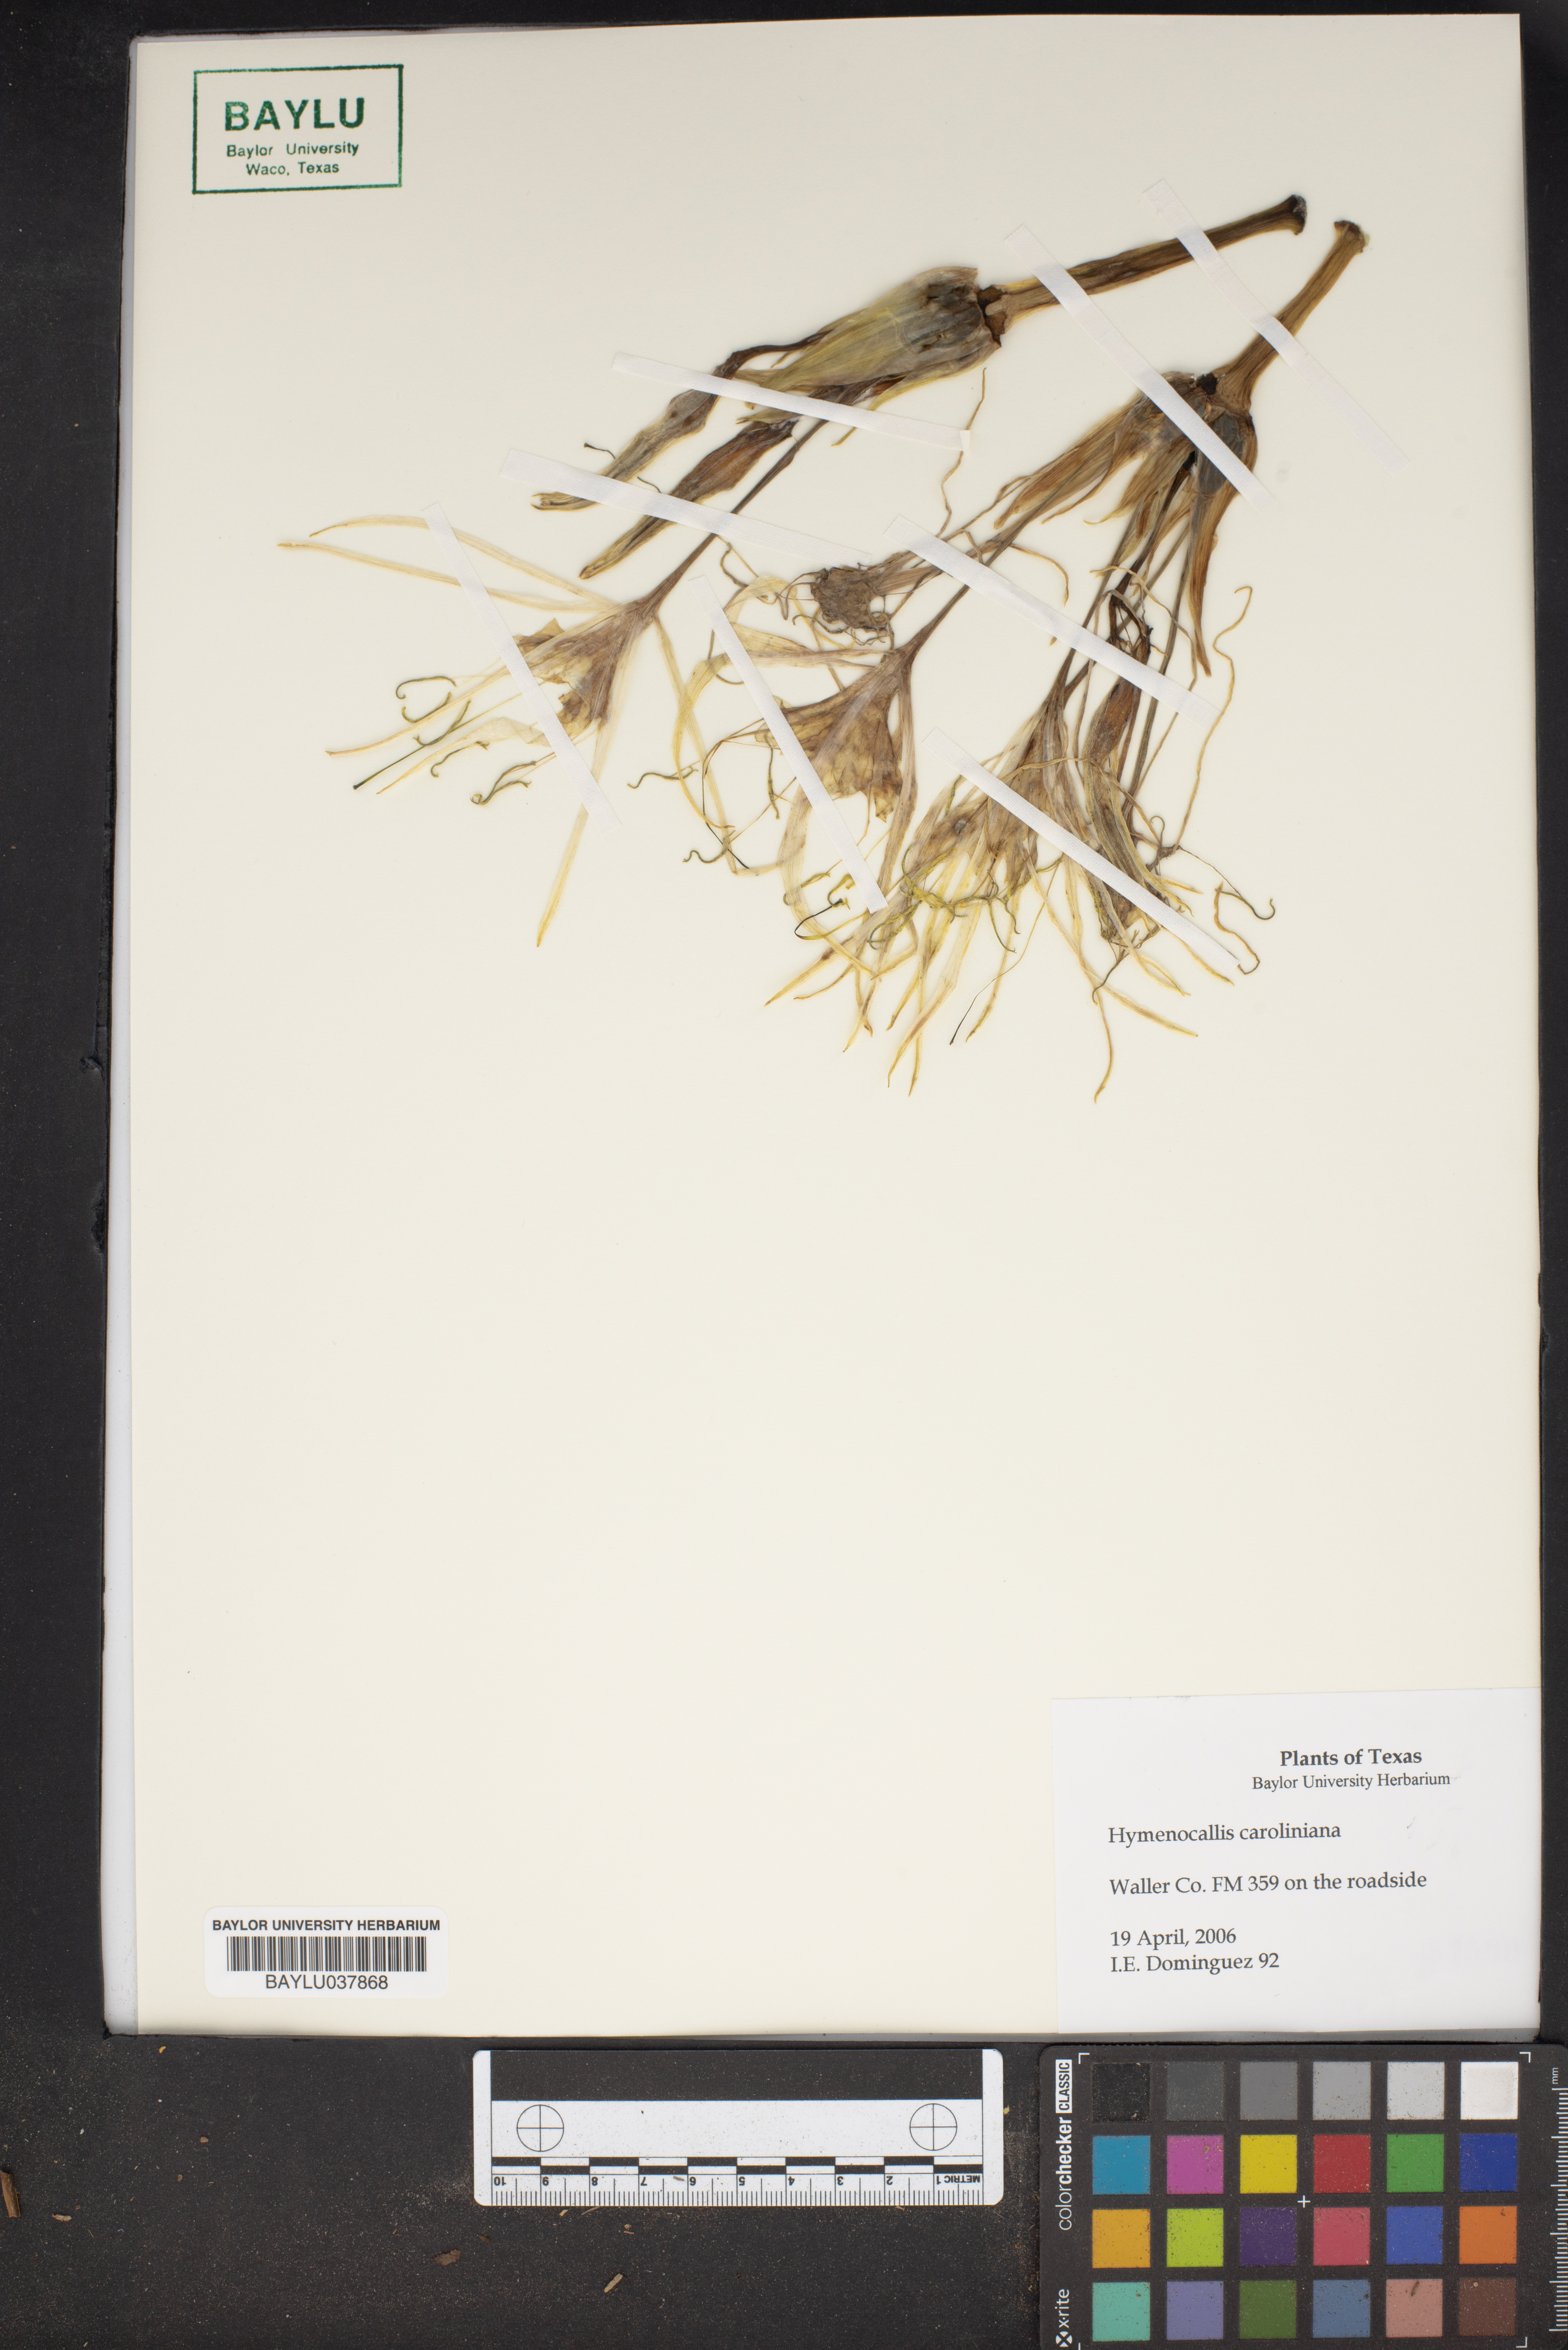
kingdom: Plantae
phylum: Tracheophyta
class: Liliopsida
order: Asparagales
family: Amaryllidaceae
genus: Pancratium
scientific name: Pancratium maritimum
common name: Sea-daffodil
